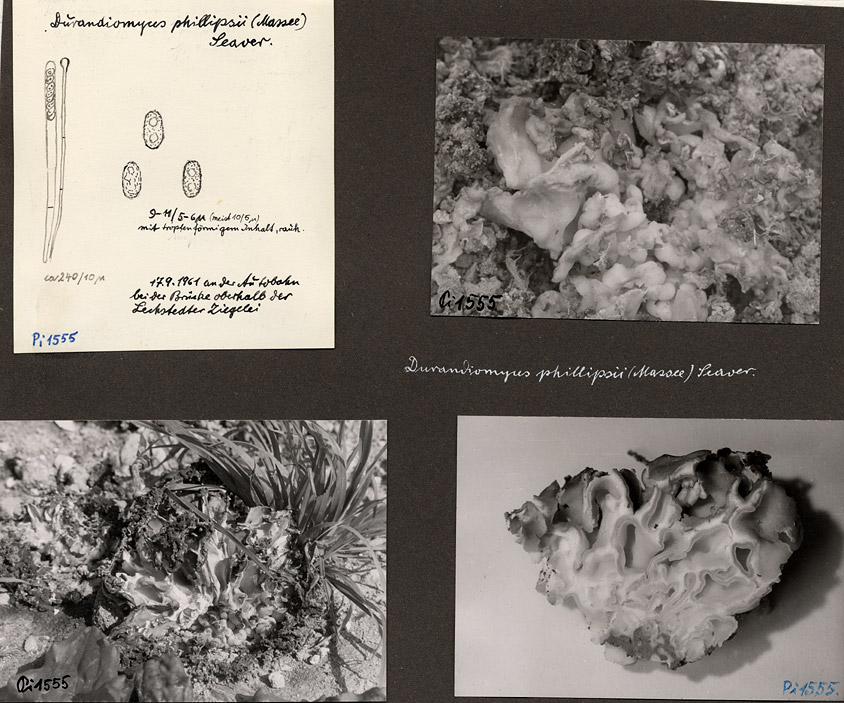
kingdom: Fungi
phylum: Ascomycota
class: Pezizomycetes
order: Pezizales
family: Pezizaceae
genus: Peziza
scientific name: Peziza proteana
